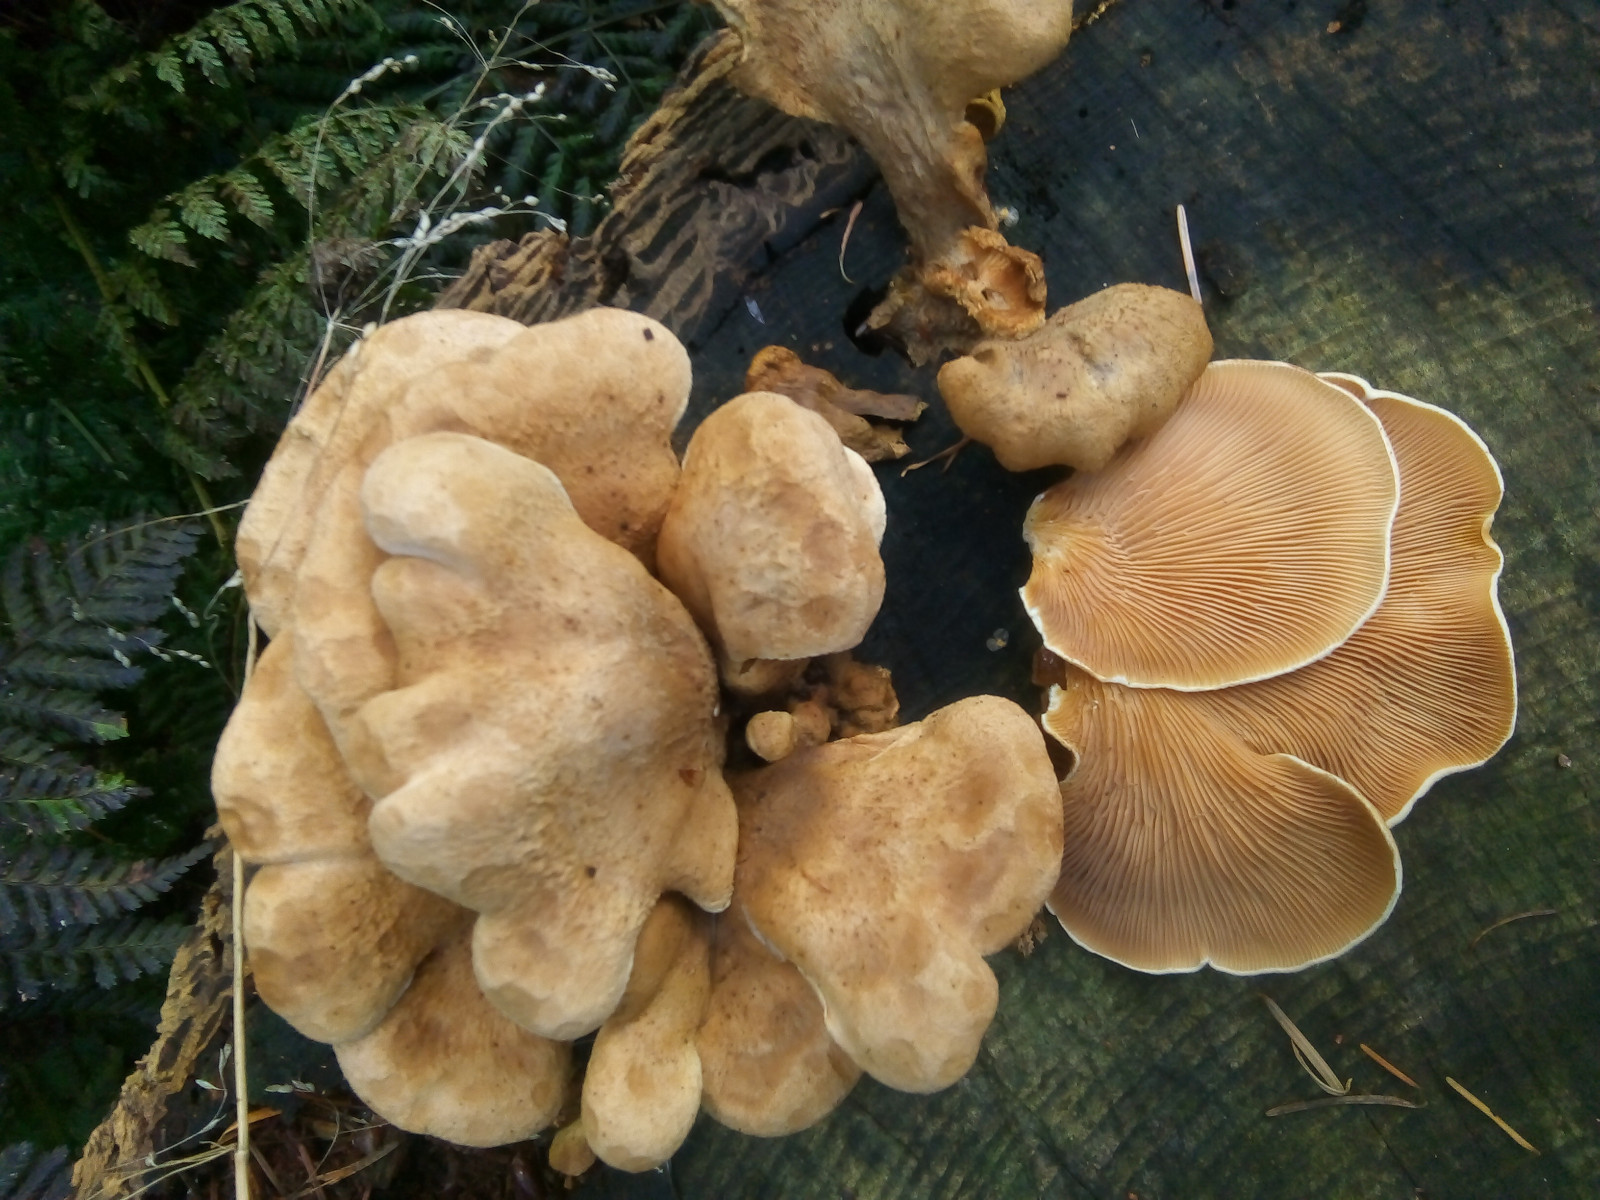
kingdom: Fungi
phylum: Basidiomycota
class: Agaricomycetes
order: Boletales
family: Tapinellaceae
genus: Tapinella
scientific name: Tapinella panuoides
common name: tømmer-viftesvamp
